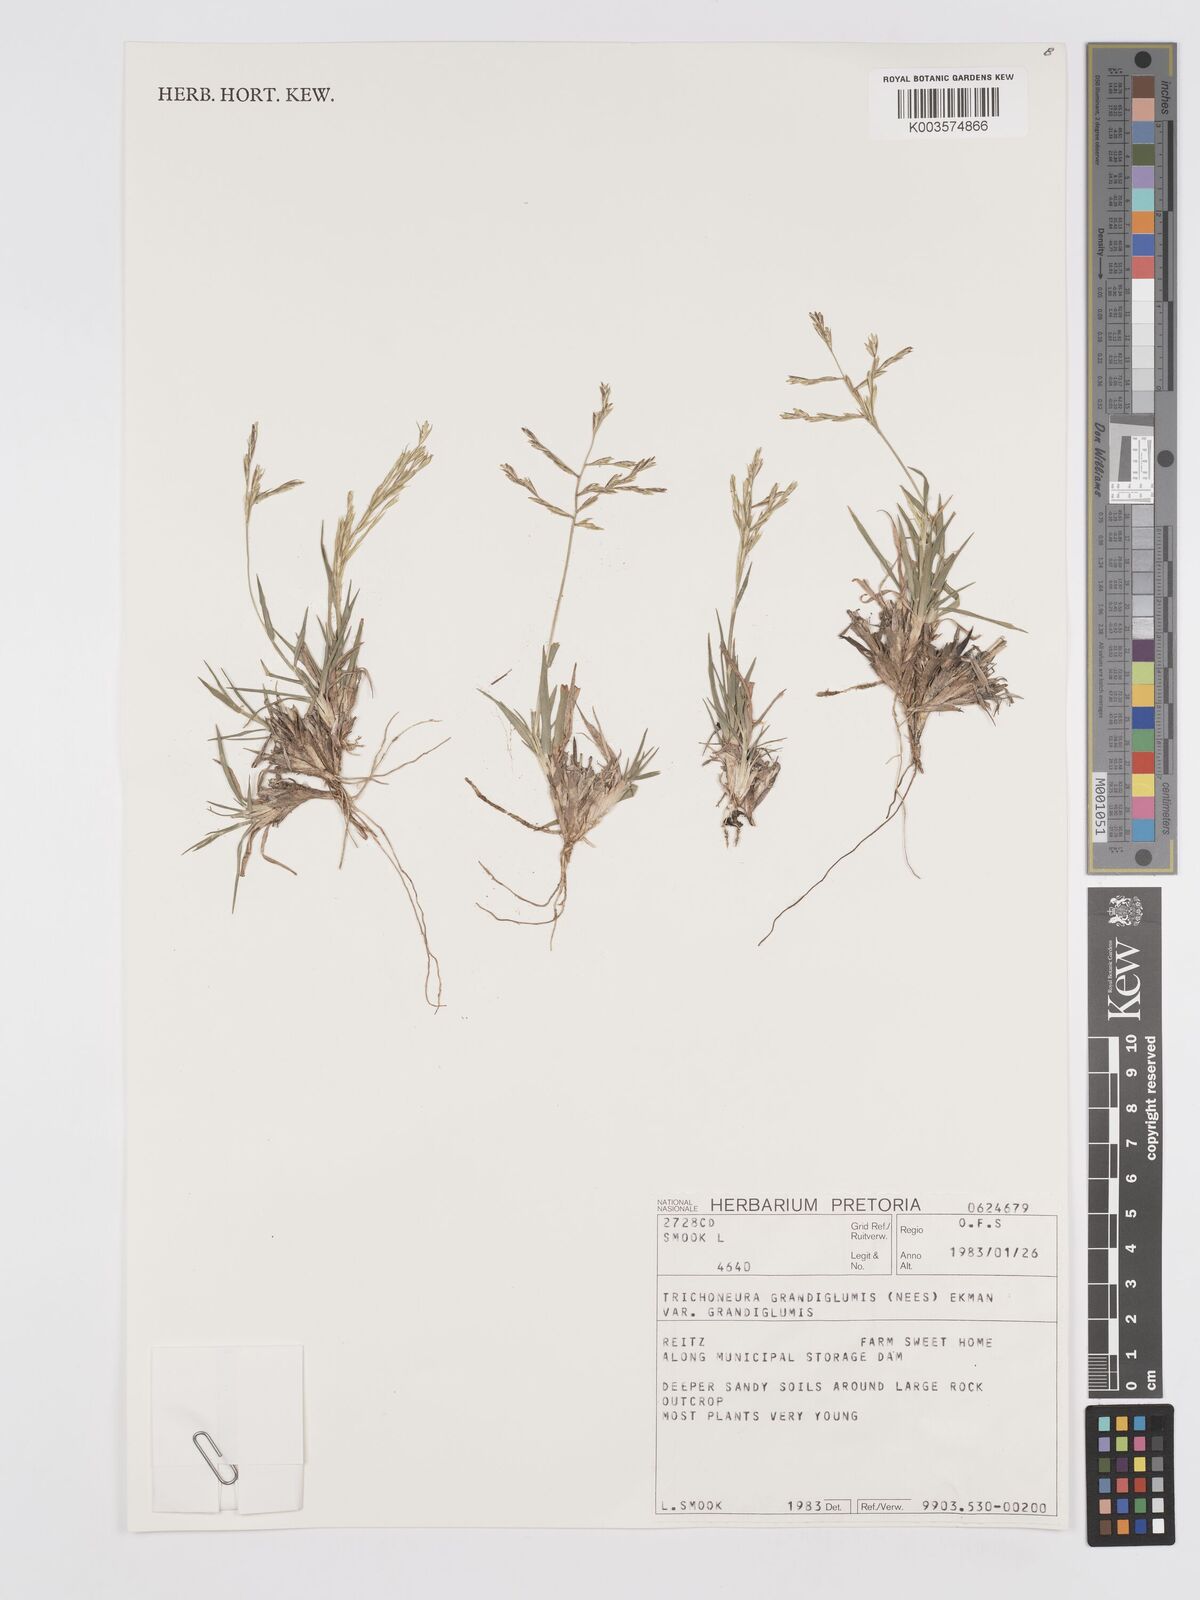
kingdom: Plantae
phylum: Tracheophyta
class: Liliopsida
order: Poales
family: Poaceae
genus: Trichoneura
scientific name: Trichoneura grandiglumis
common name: Rolling grass
